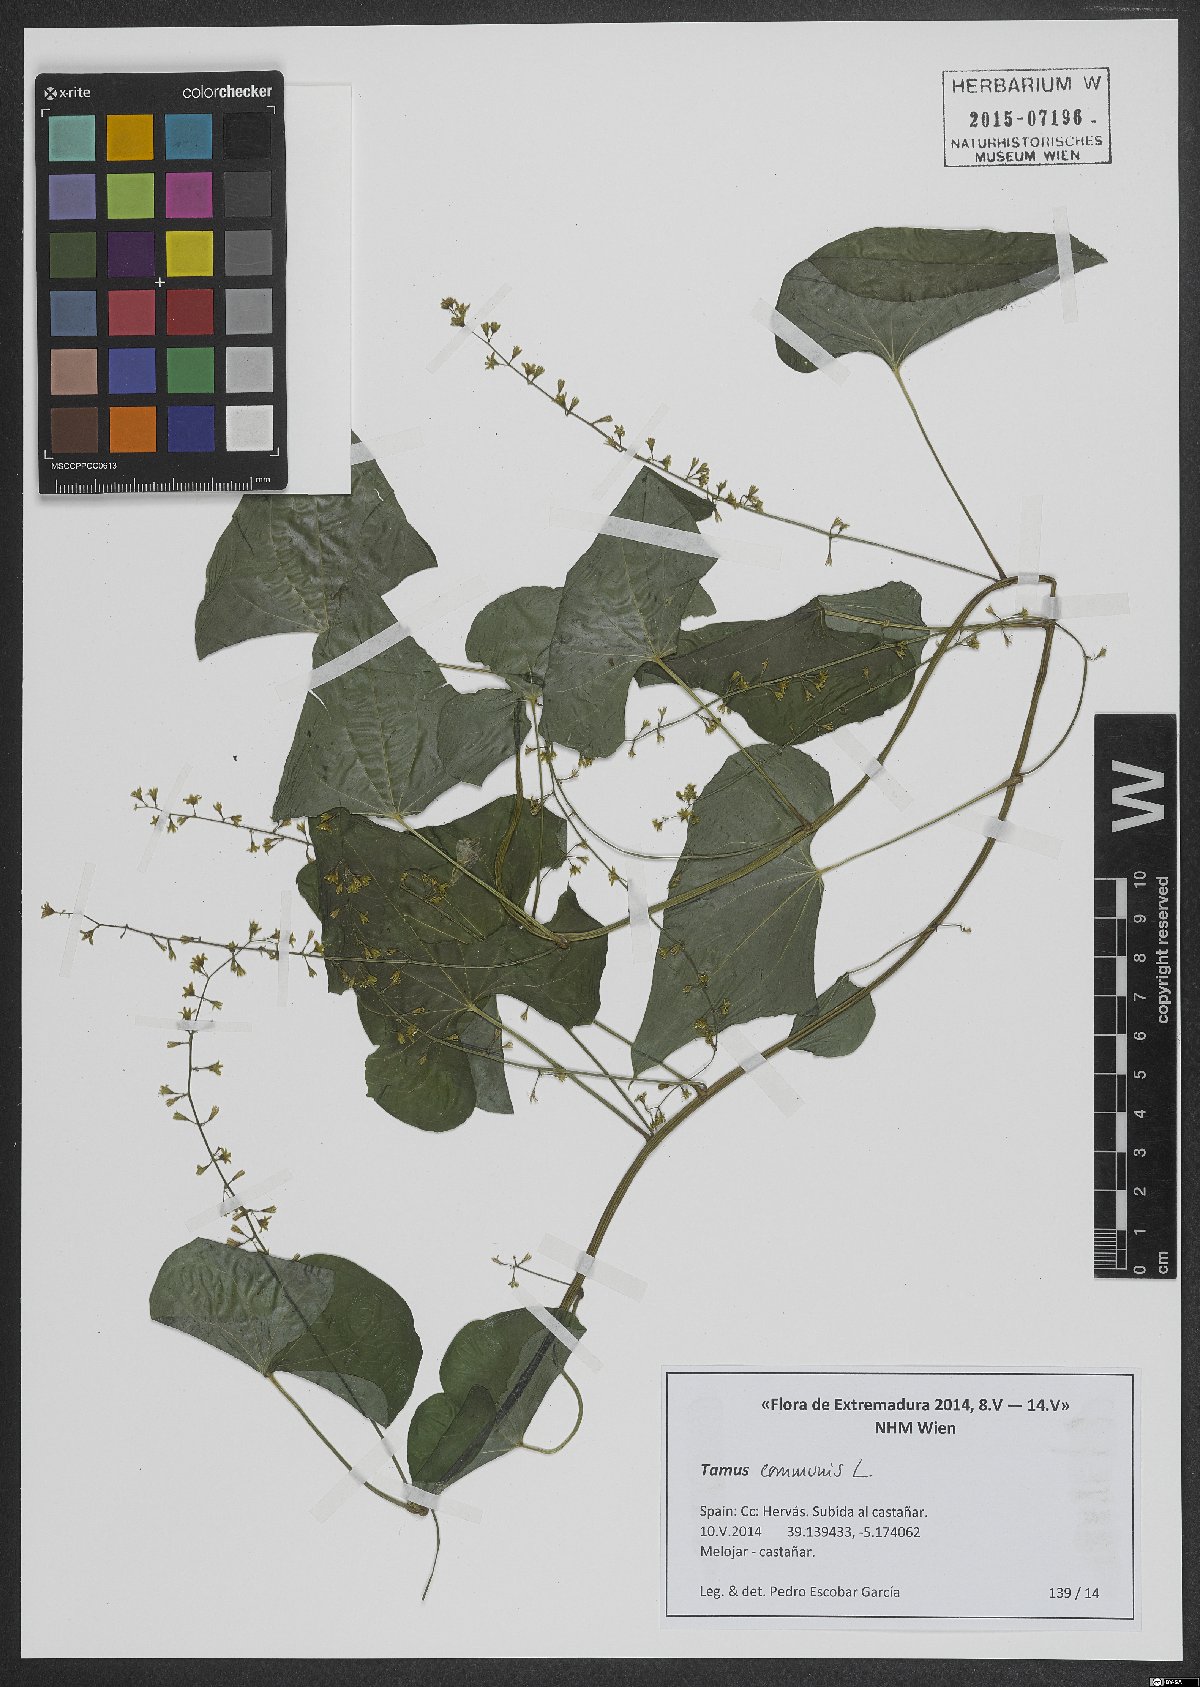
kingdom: Plantae
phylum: Tracheophyta
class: Liliopsida
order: Dioscoreales
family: Dioscoreaceae
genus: Dioscorea
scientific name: Dioscorea communis
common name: Black-bindweed
